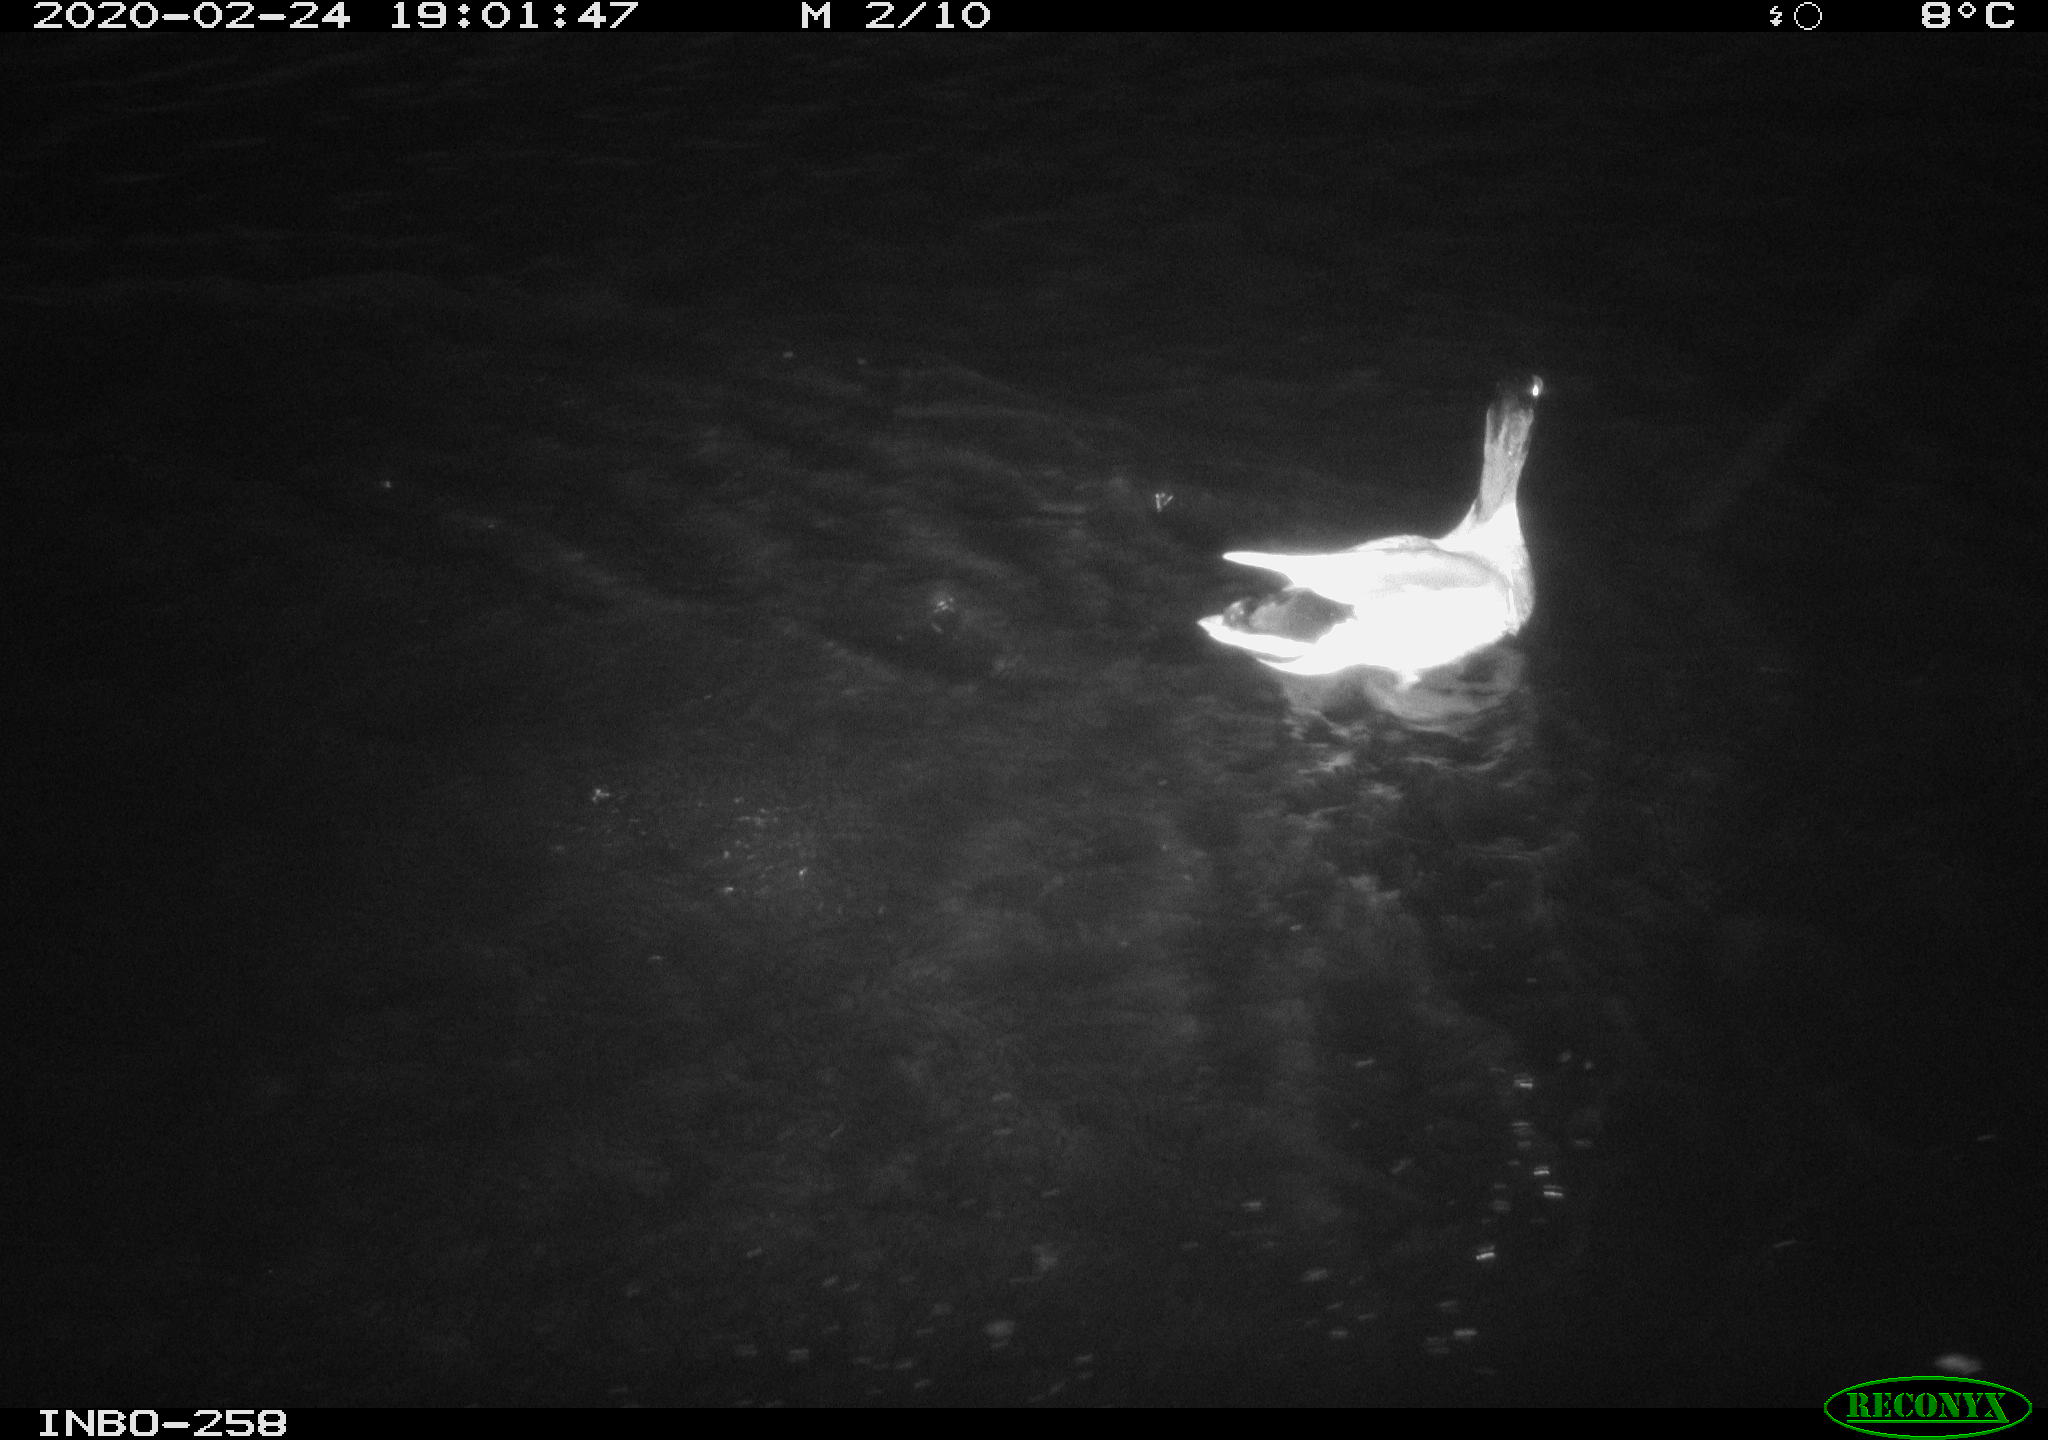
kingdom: Animalia
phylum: Chordata
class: Aves
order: Anseriformes
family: Anatidae
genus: Anas
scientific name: Anas platyrhynchos
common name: Mallard
